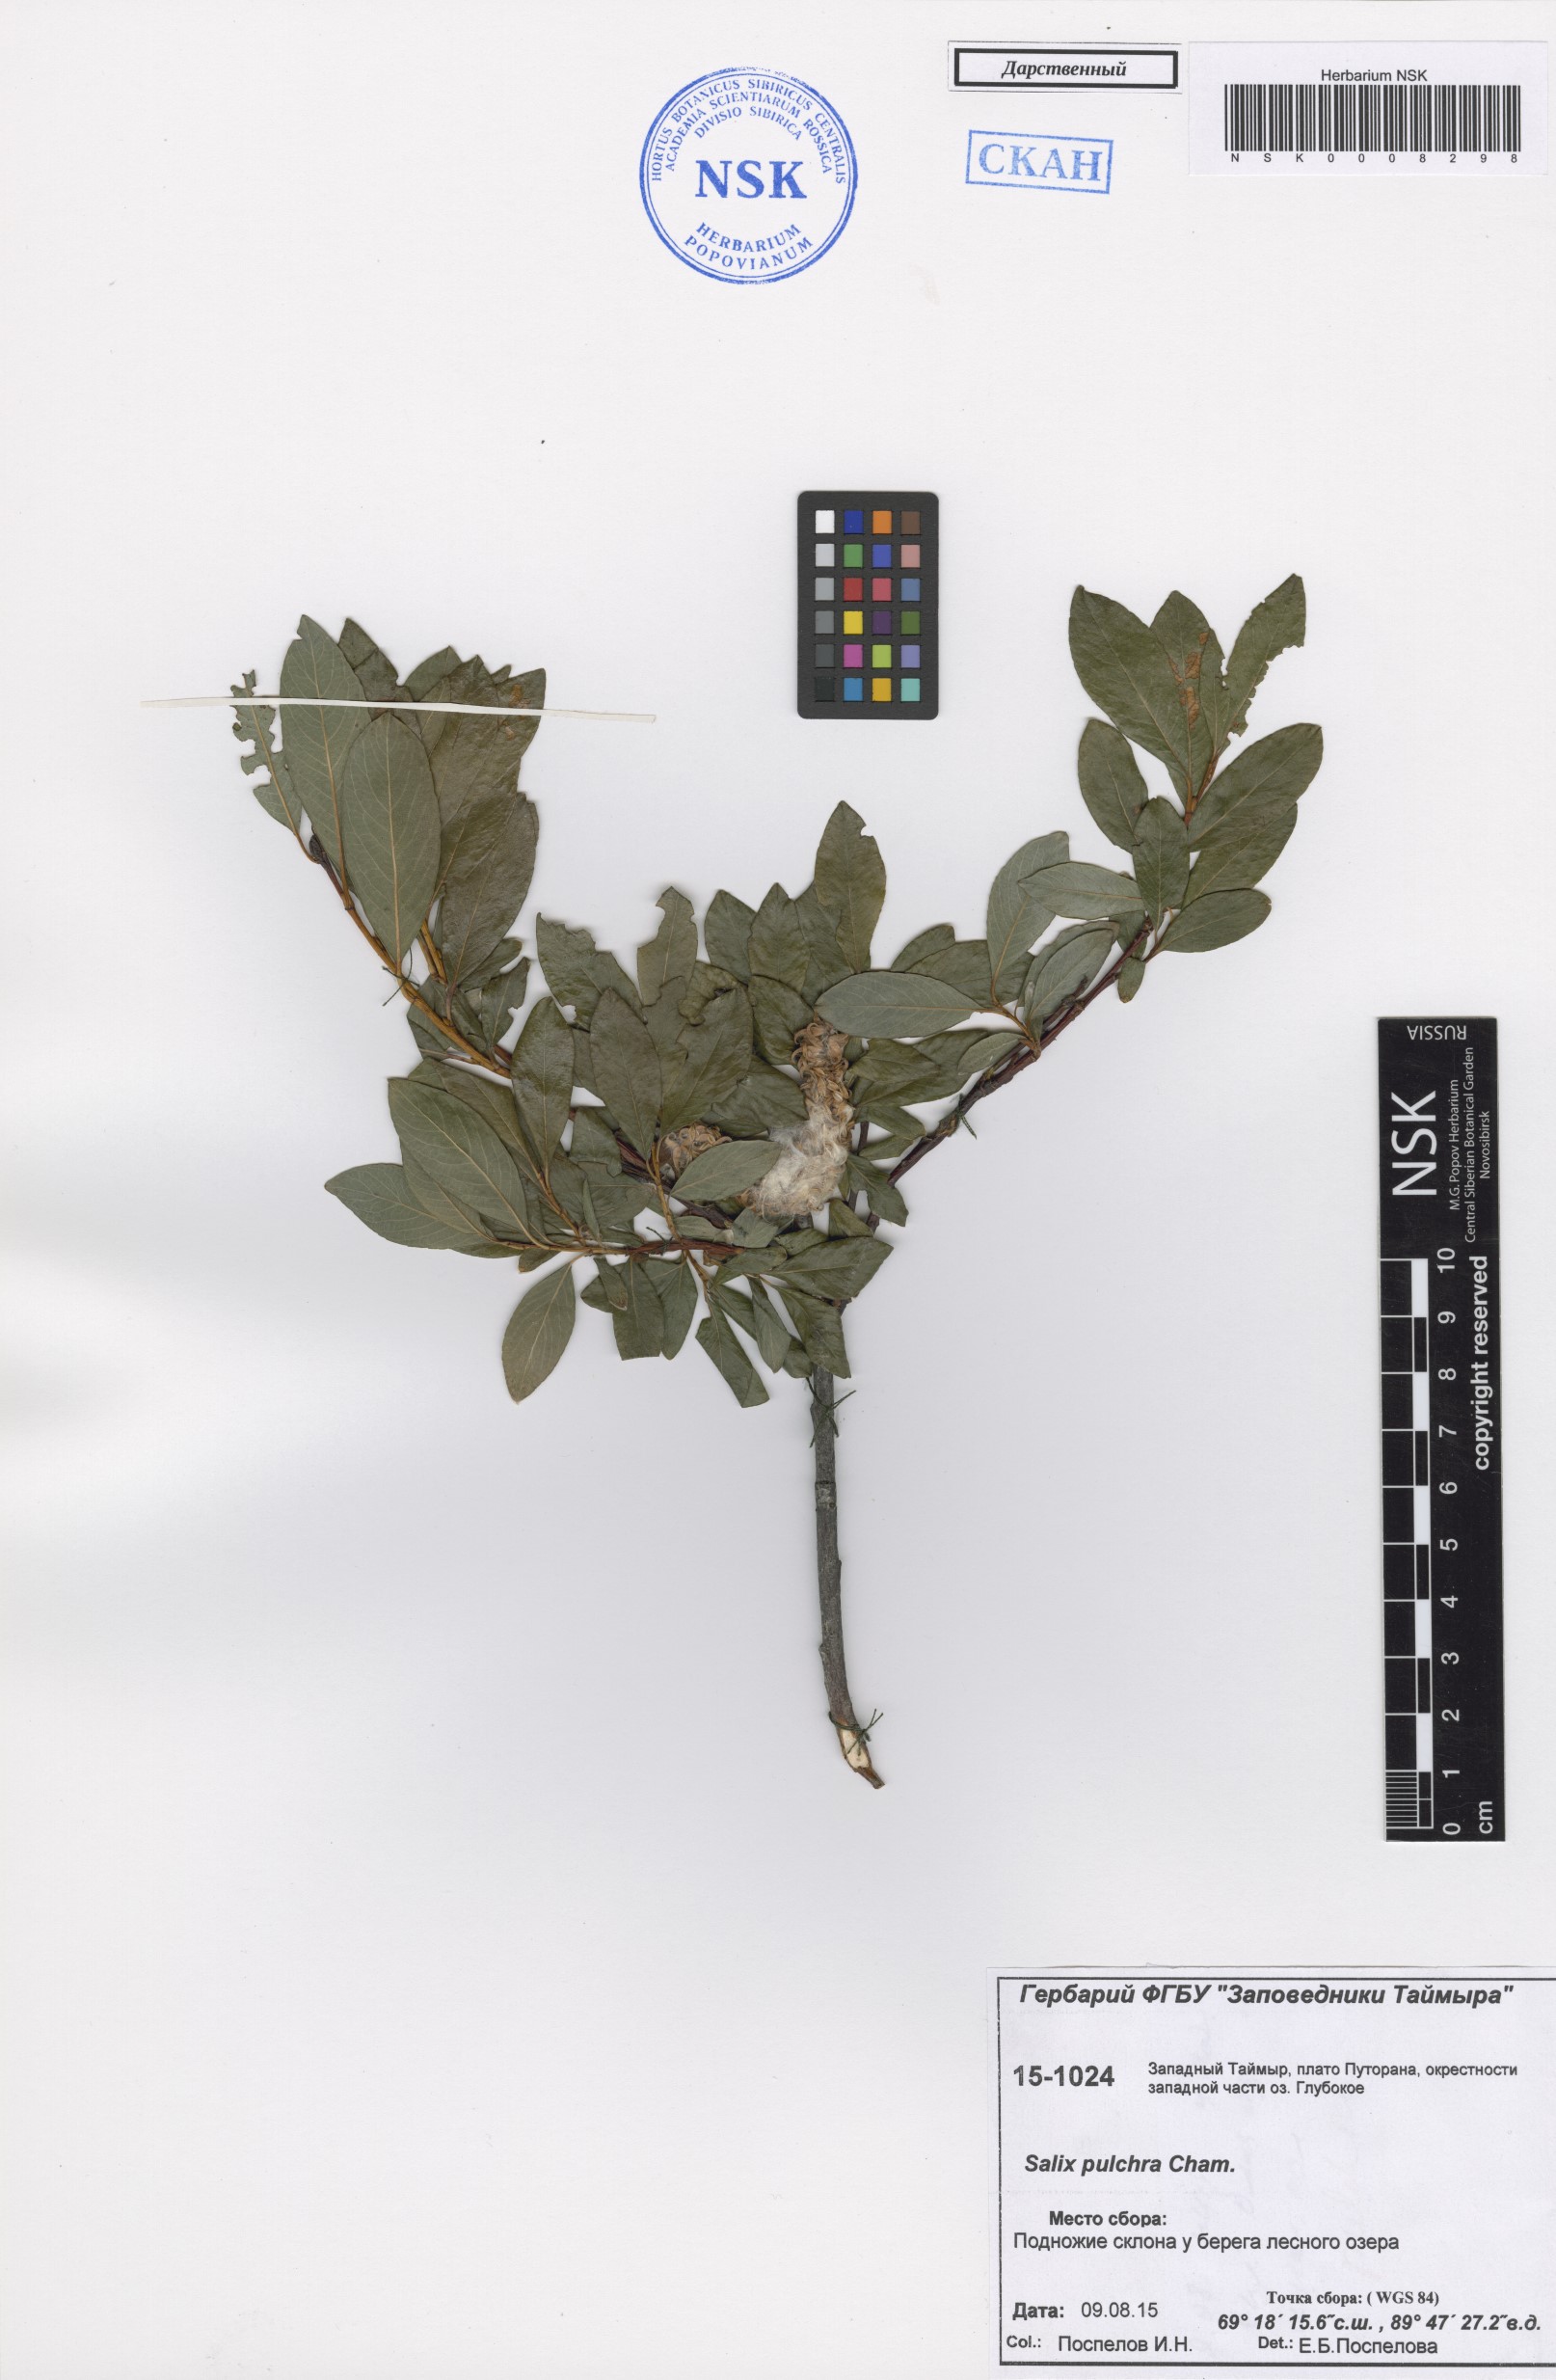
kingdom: Plantae
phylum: Tracheophyta
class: Magnoliopsida
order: Malpighiales
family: Salicaceae
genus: Salix
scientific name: Salix pulchra
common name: Diamond-leaved willow
